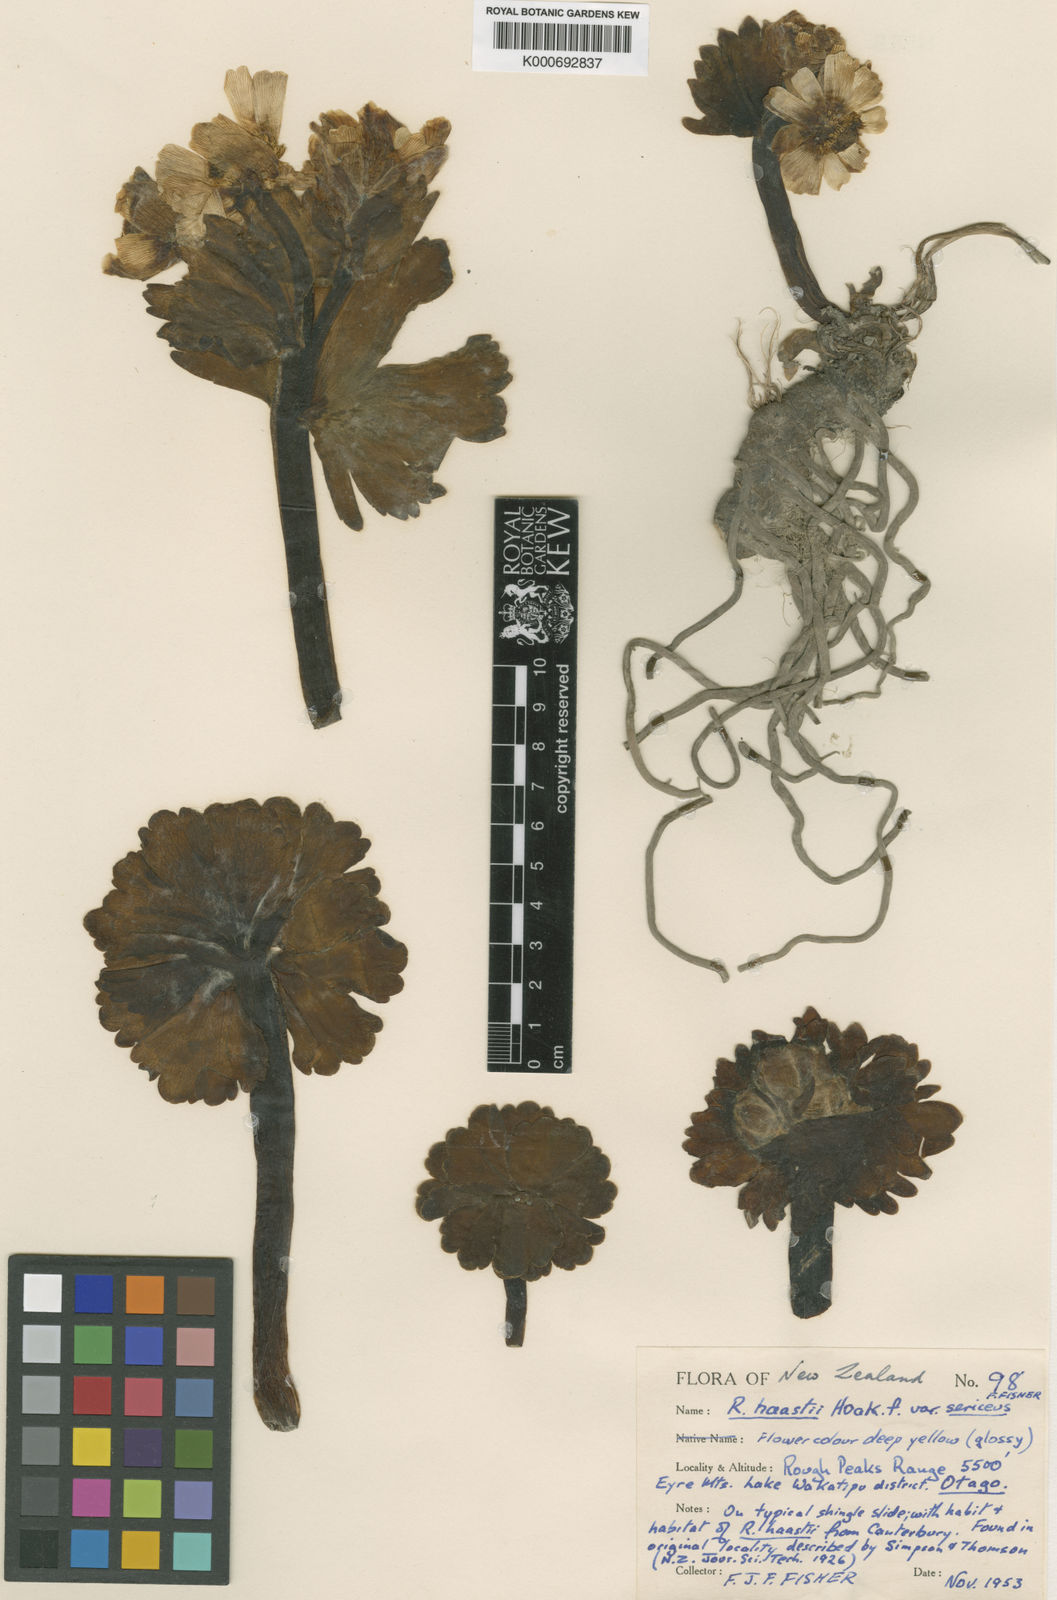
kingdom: Plantae
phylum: Tracheophyta
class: Magnoliopsida
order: Ranunculales
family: Ranunculaceae
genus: Ranunculus
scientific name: Ranunculus haastii
